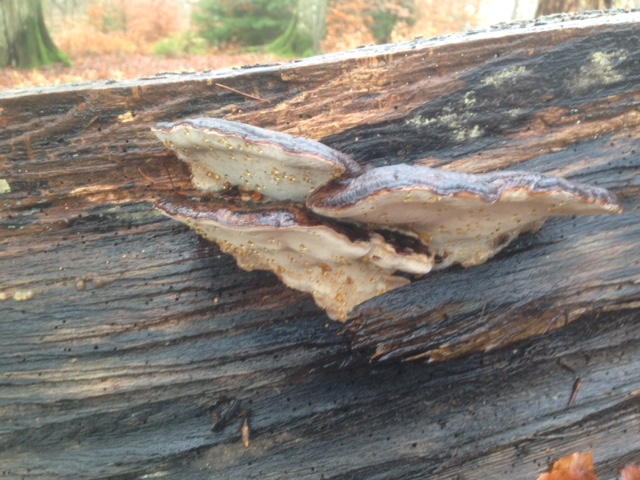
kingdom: Fungi
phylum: Basidiomycota
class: Agaricomycetes
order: Polyporales
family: Ischnodermataceae
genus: Ischnoderma
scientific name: Ischnoderma resinosum
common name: løv-tjæreporesvamp
